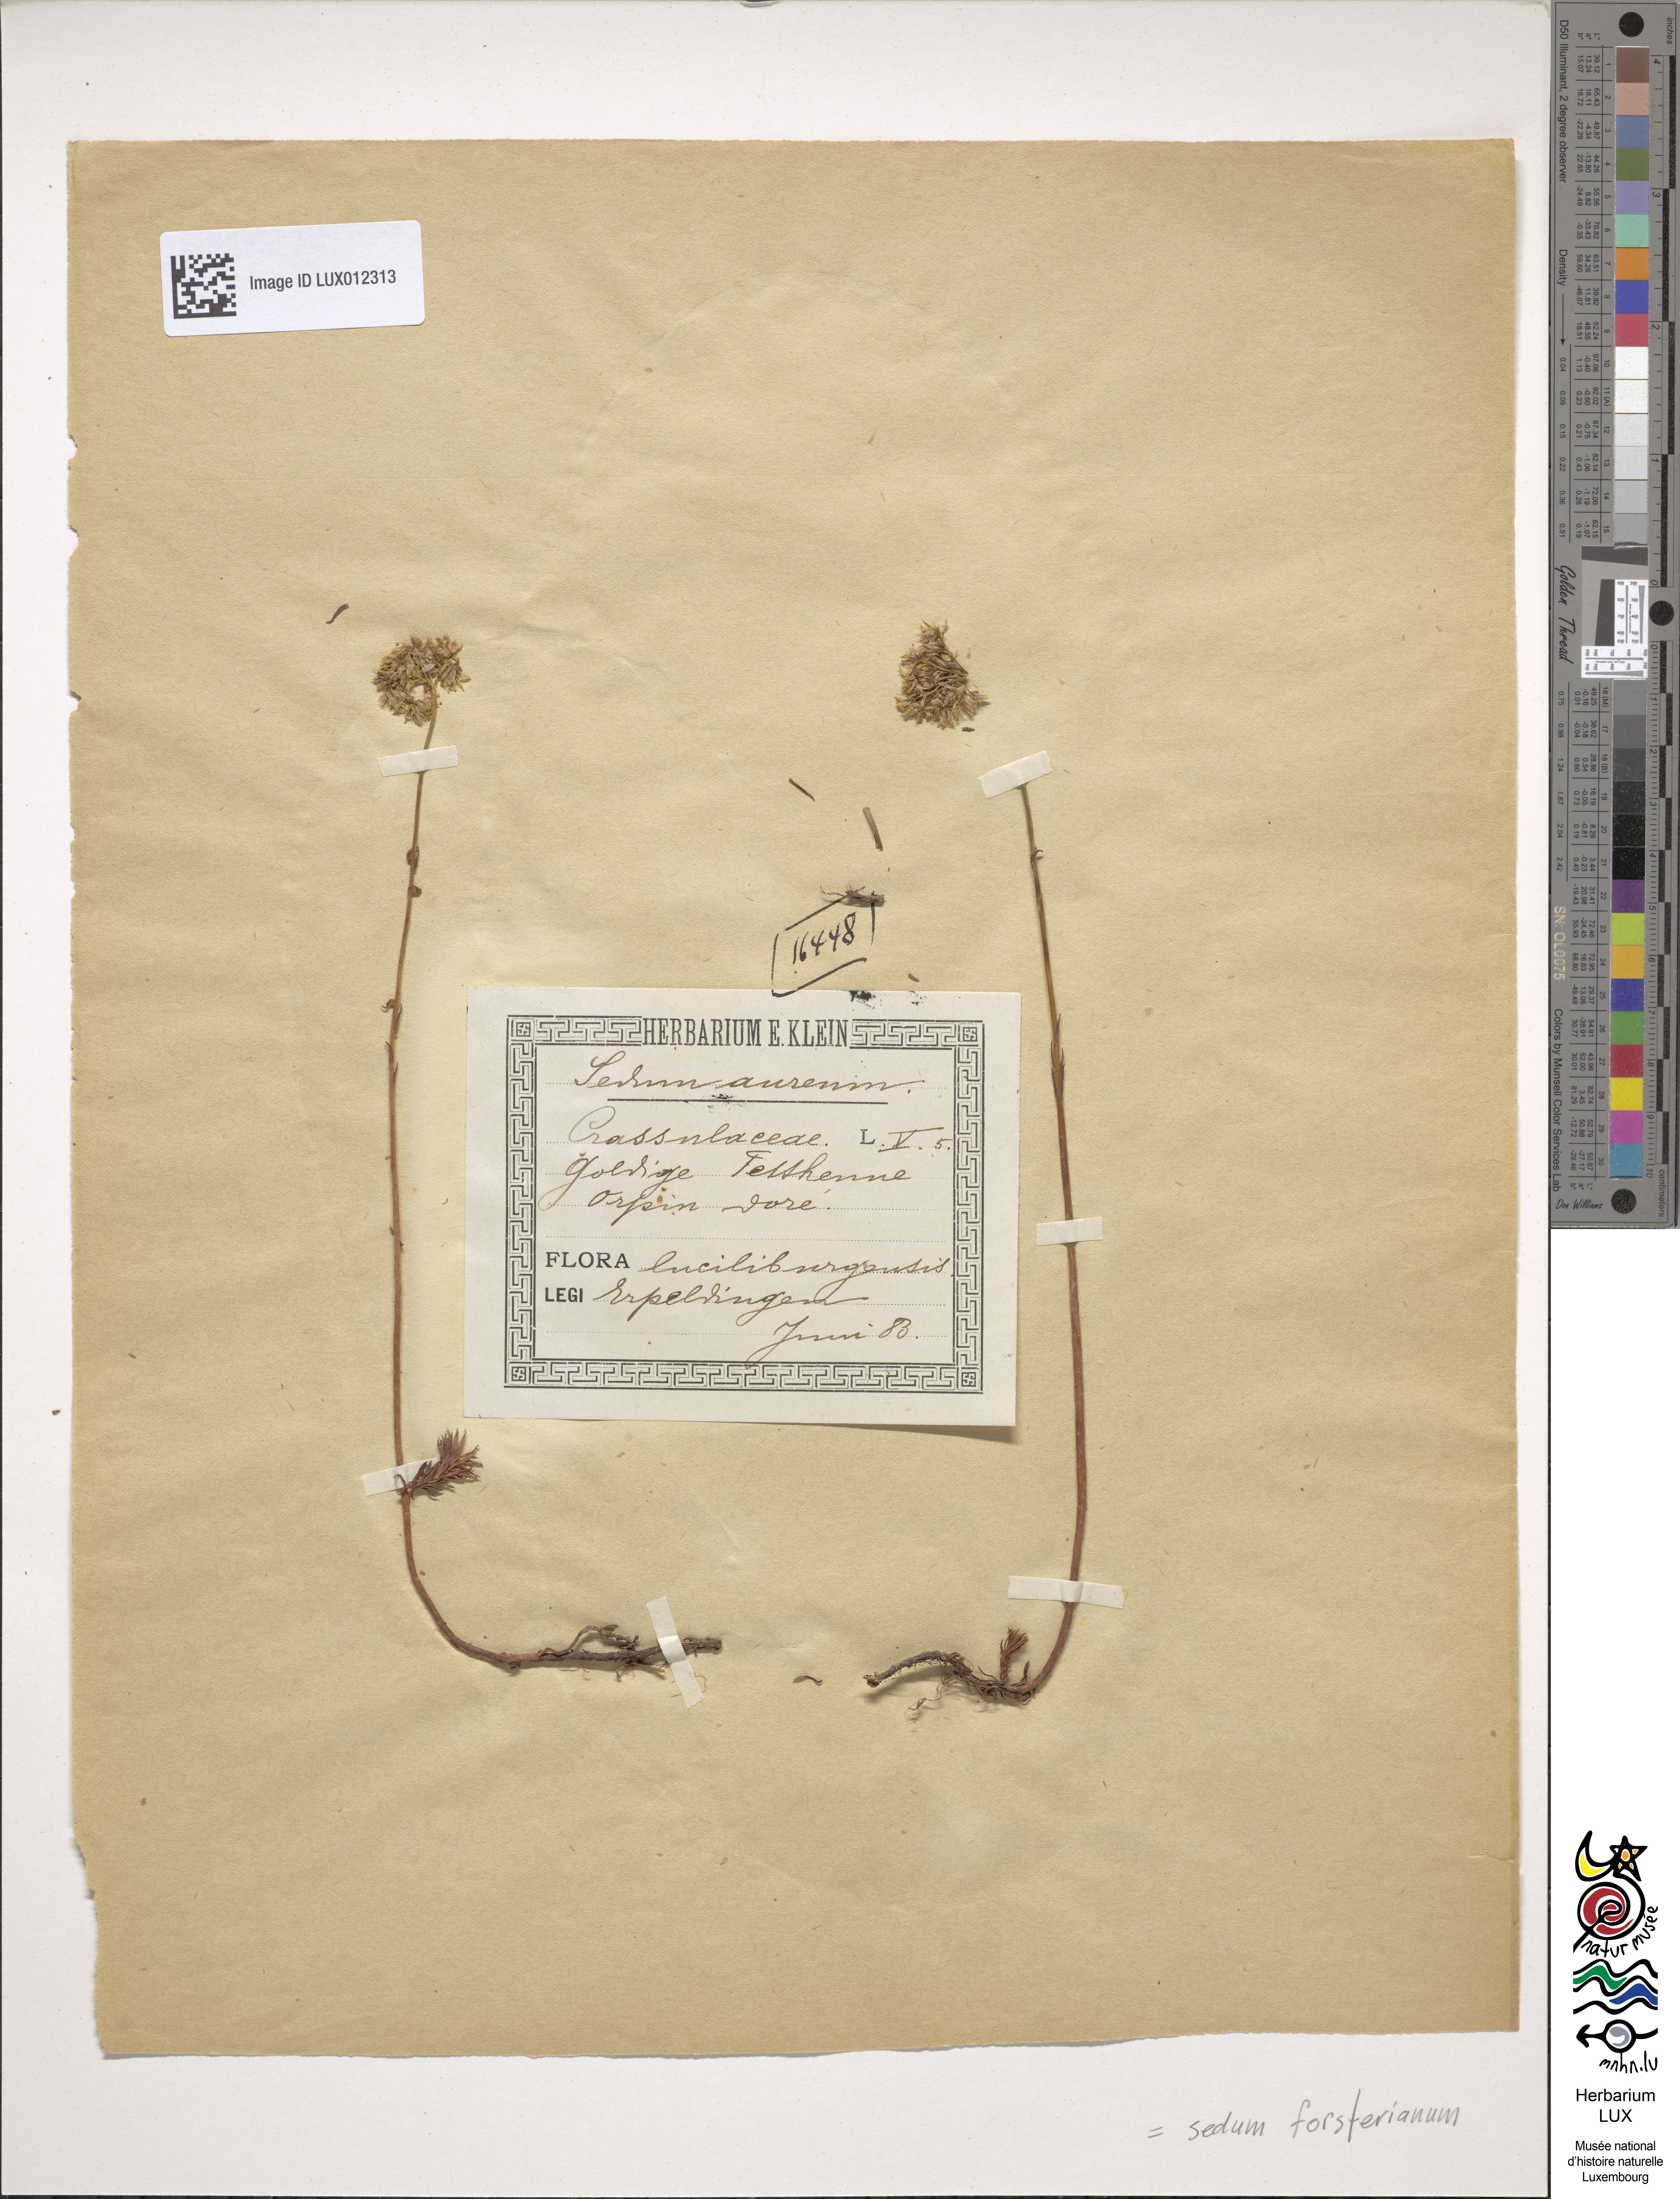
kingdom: Plantae
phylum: Tracheophyta
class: Magnoliopsida
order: Saxifragales
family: Crassulaceae
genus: Petrosedum
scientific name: Petrosedum forsterianum
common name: Forster's stonecrop
